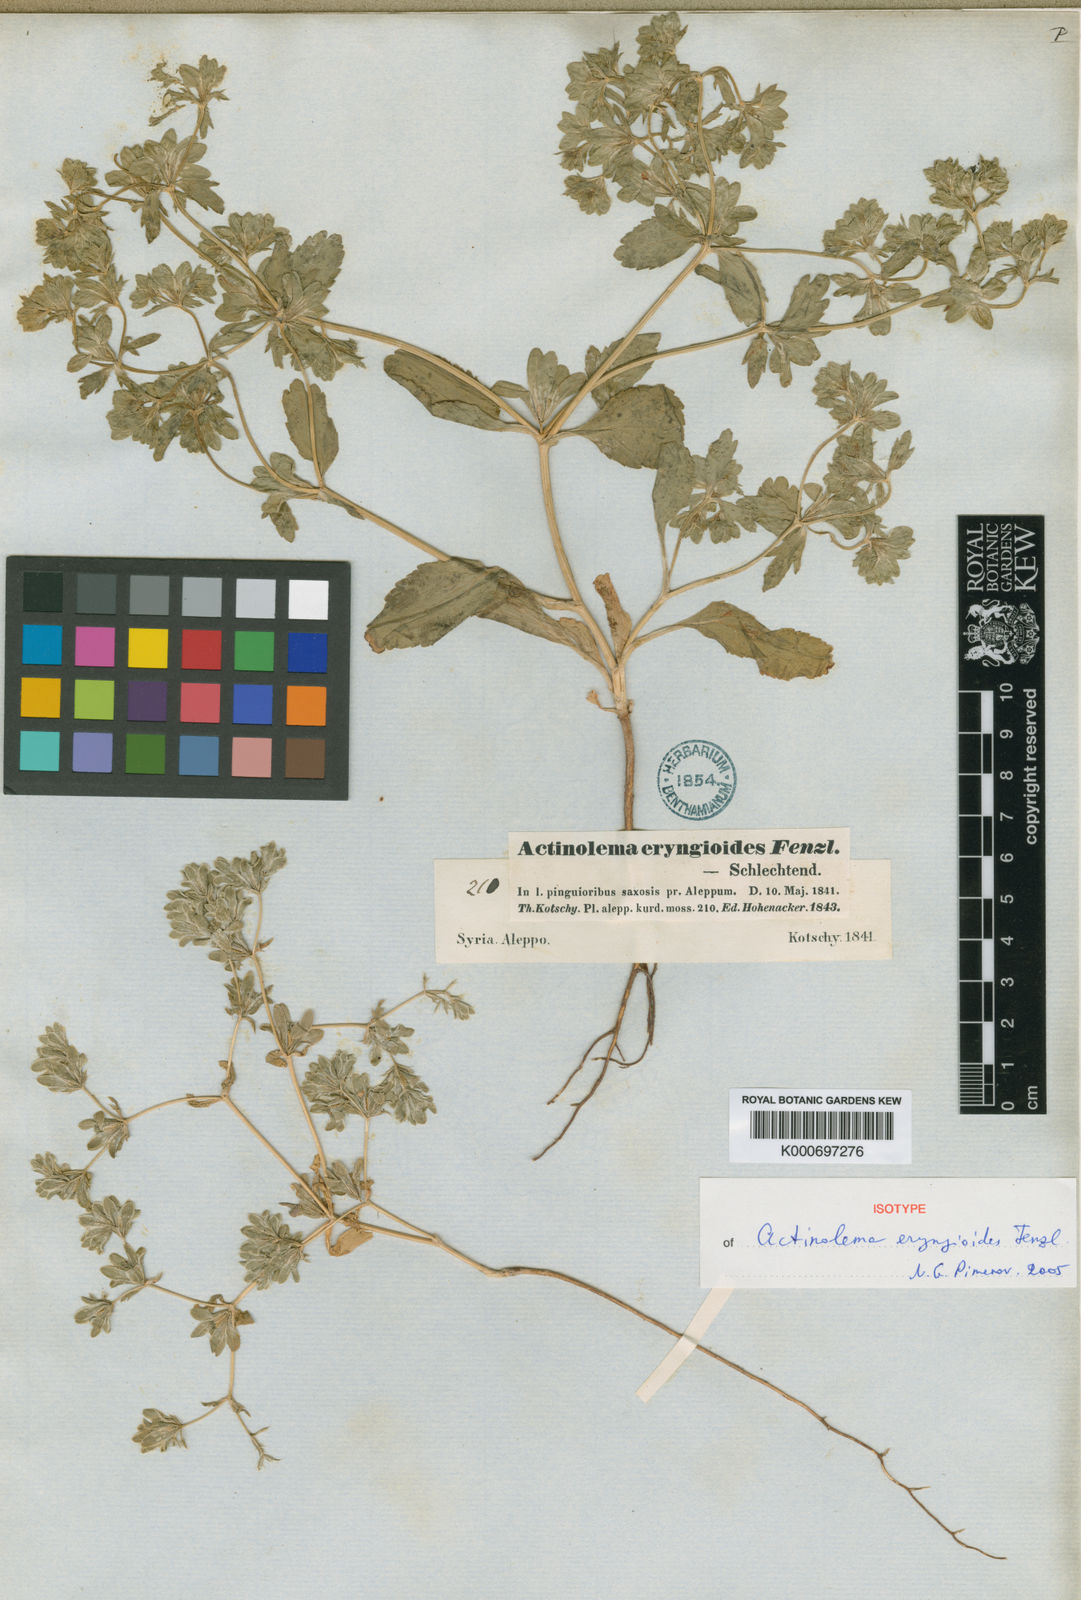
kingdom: Plantae
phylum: Tracheophyta
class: Magnoliopsida
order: Apiales
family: Apiaceae
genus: Actinolema
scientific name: Actinolema eryngioides
